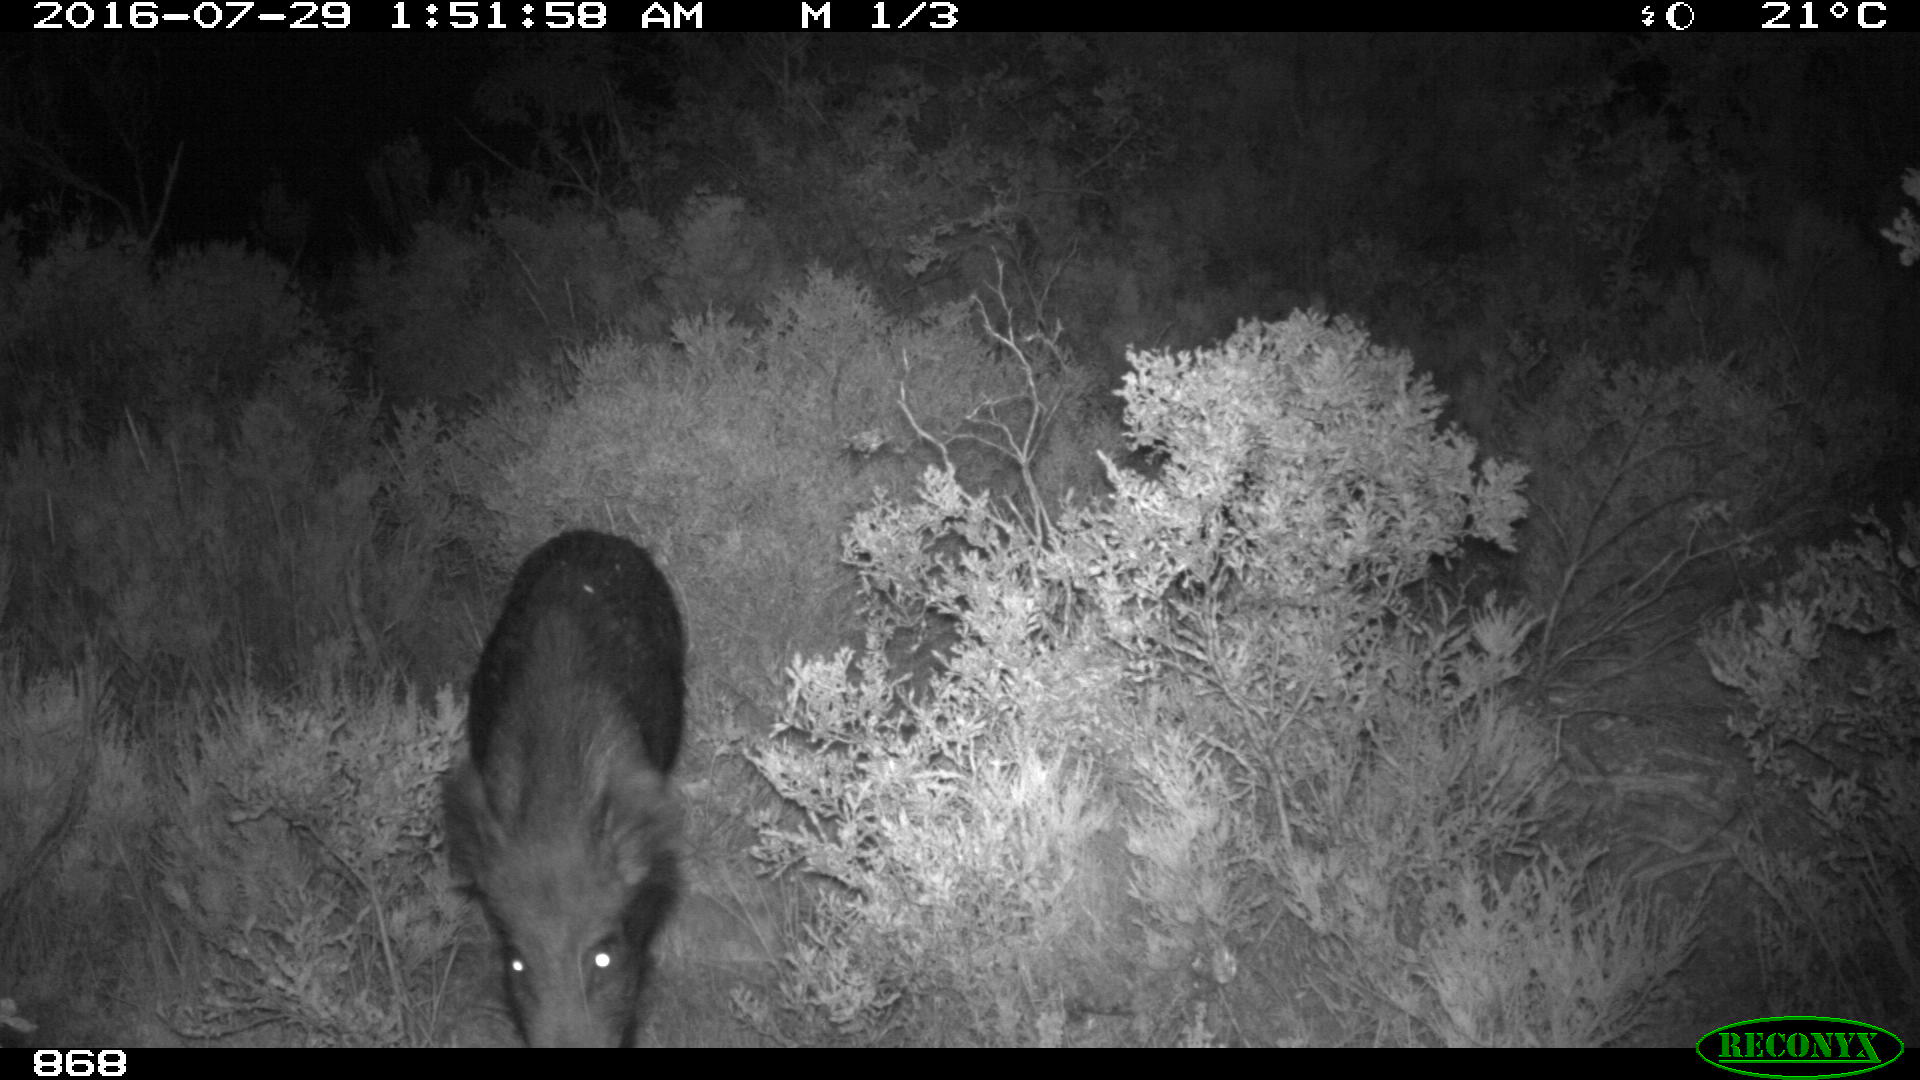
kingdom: Animalia
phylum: Chordata
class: Mammalia
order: Artiodactyla
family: Suidae
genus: Sus
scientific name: Sus scrofa
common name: Wild boar
